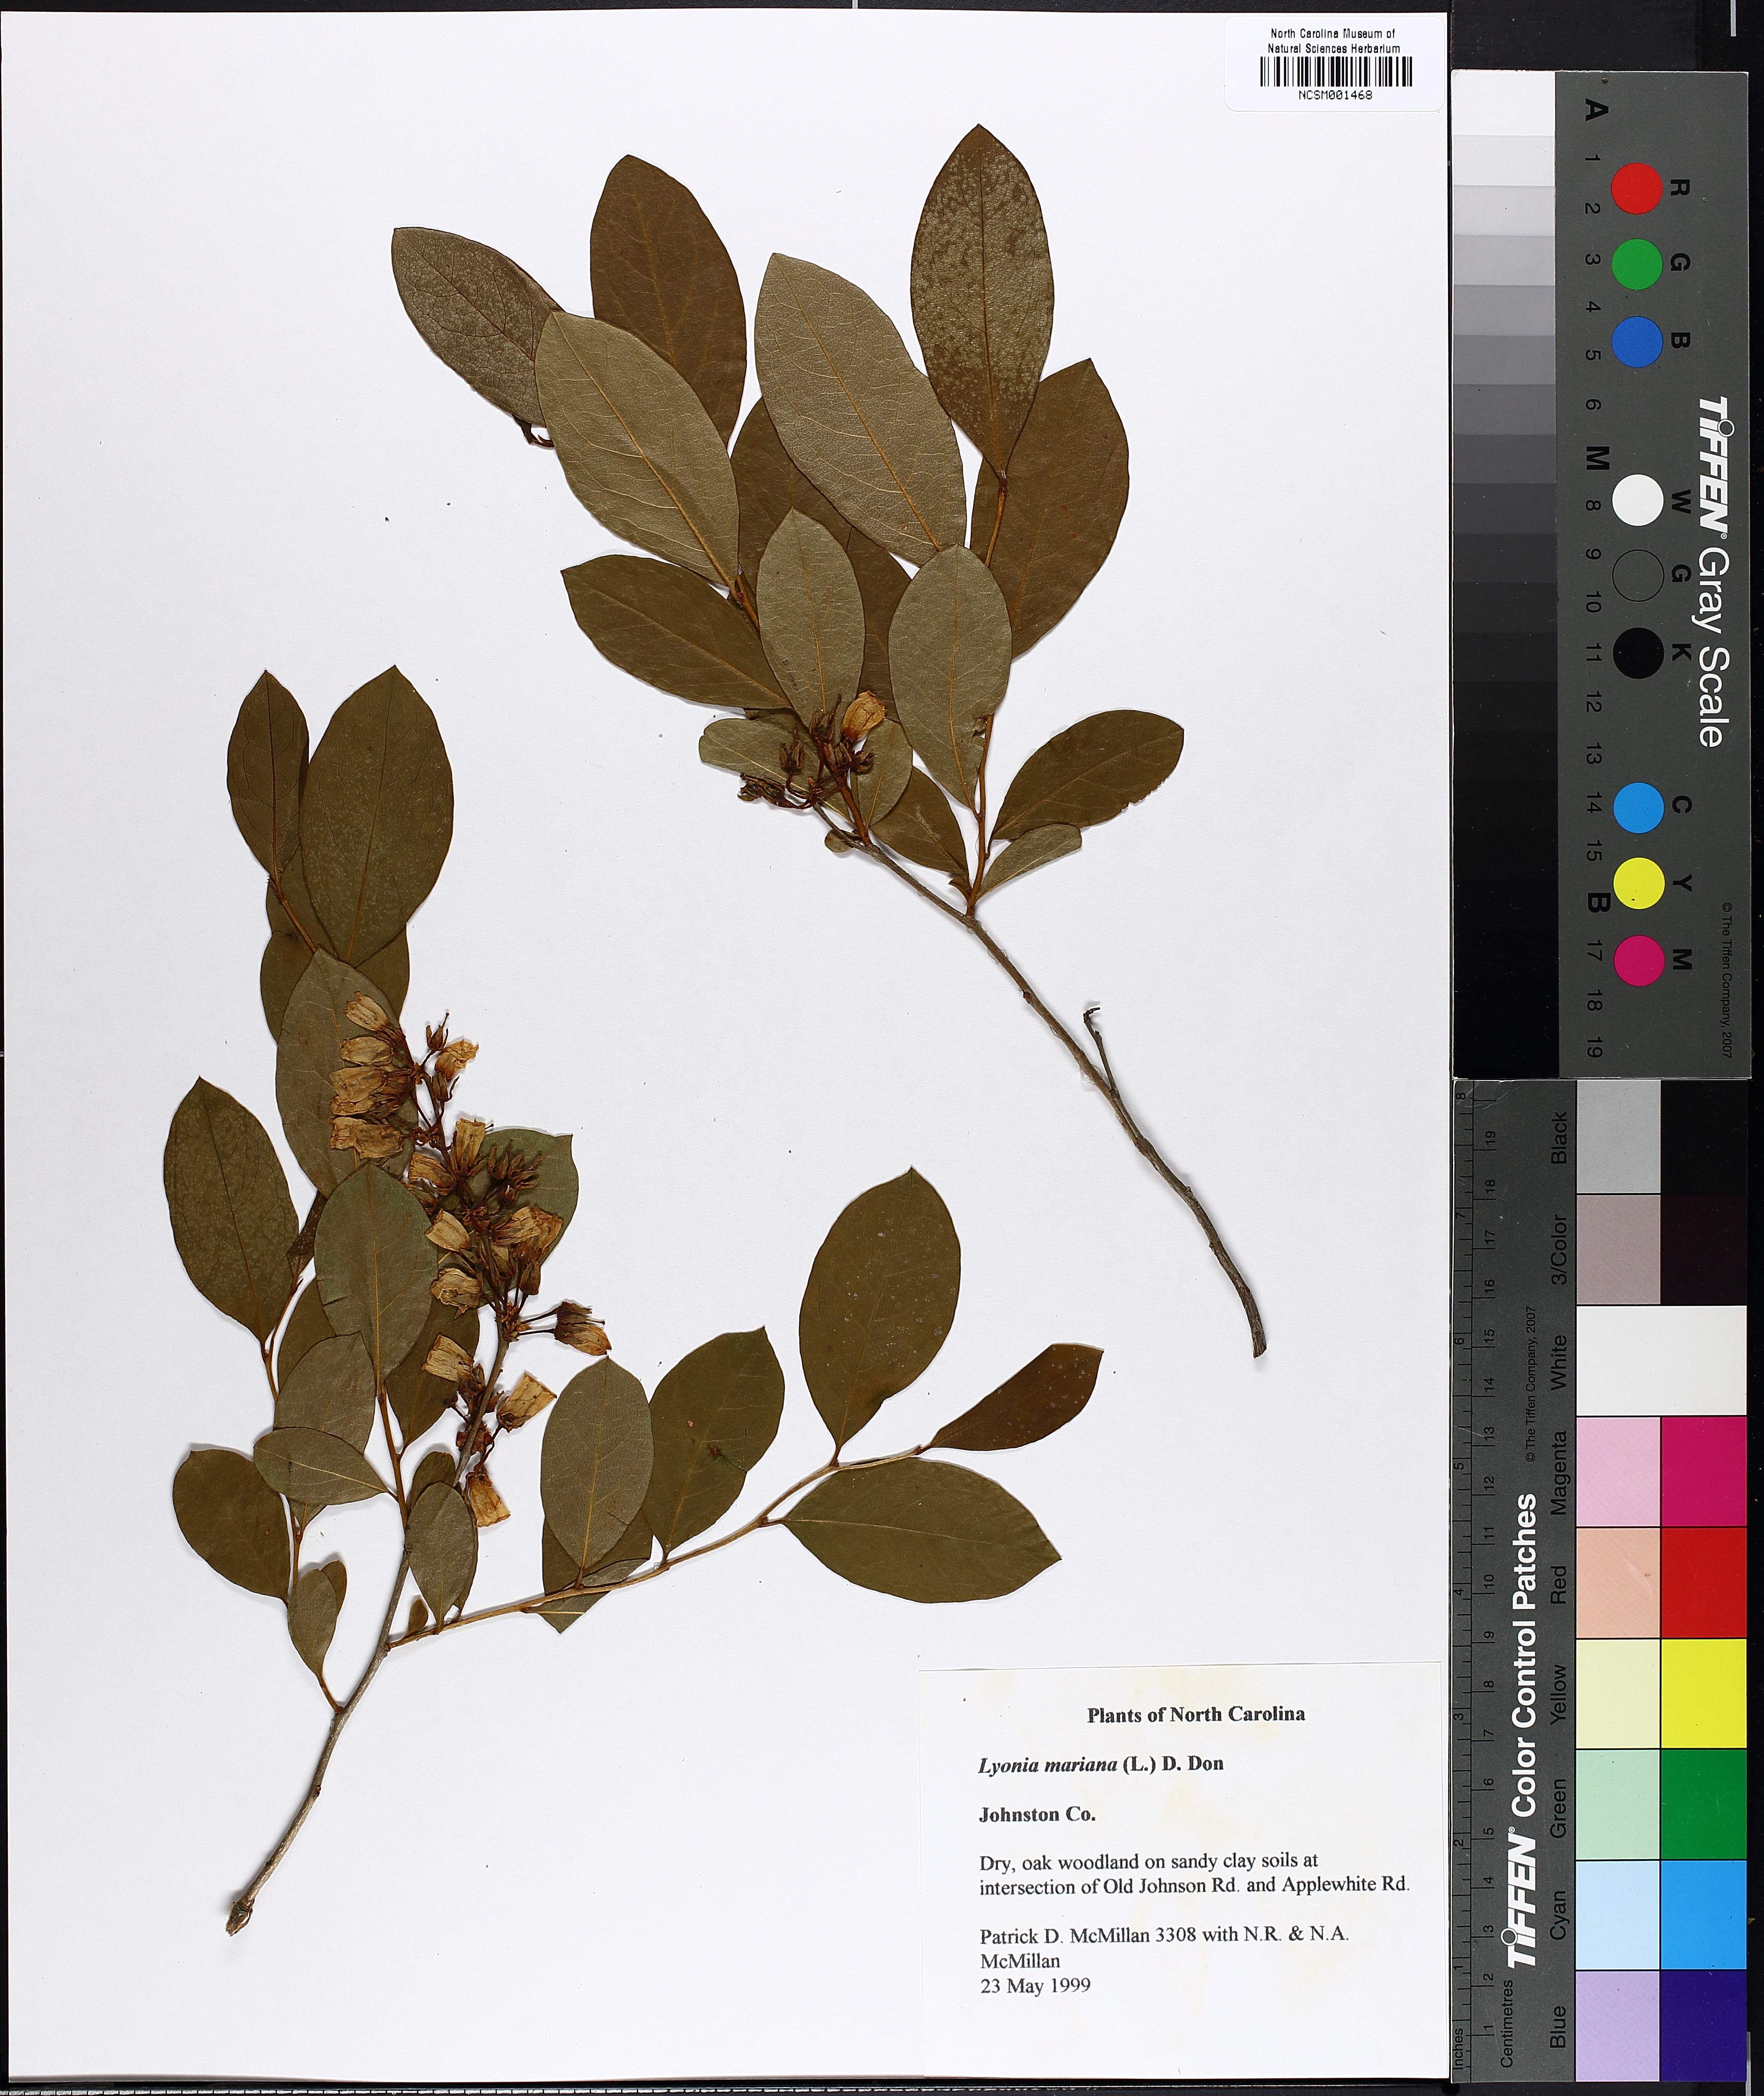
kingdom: Plantae
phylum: Tracheophyta
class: Magnoliopsida
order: Ericales
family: Ericaceae
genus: Lyonia
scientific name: Lyonia mariana
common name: Staggerbush
